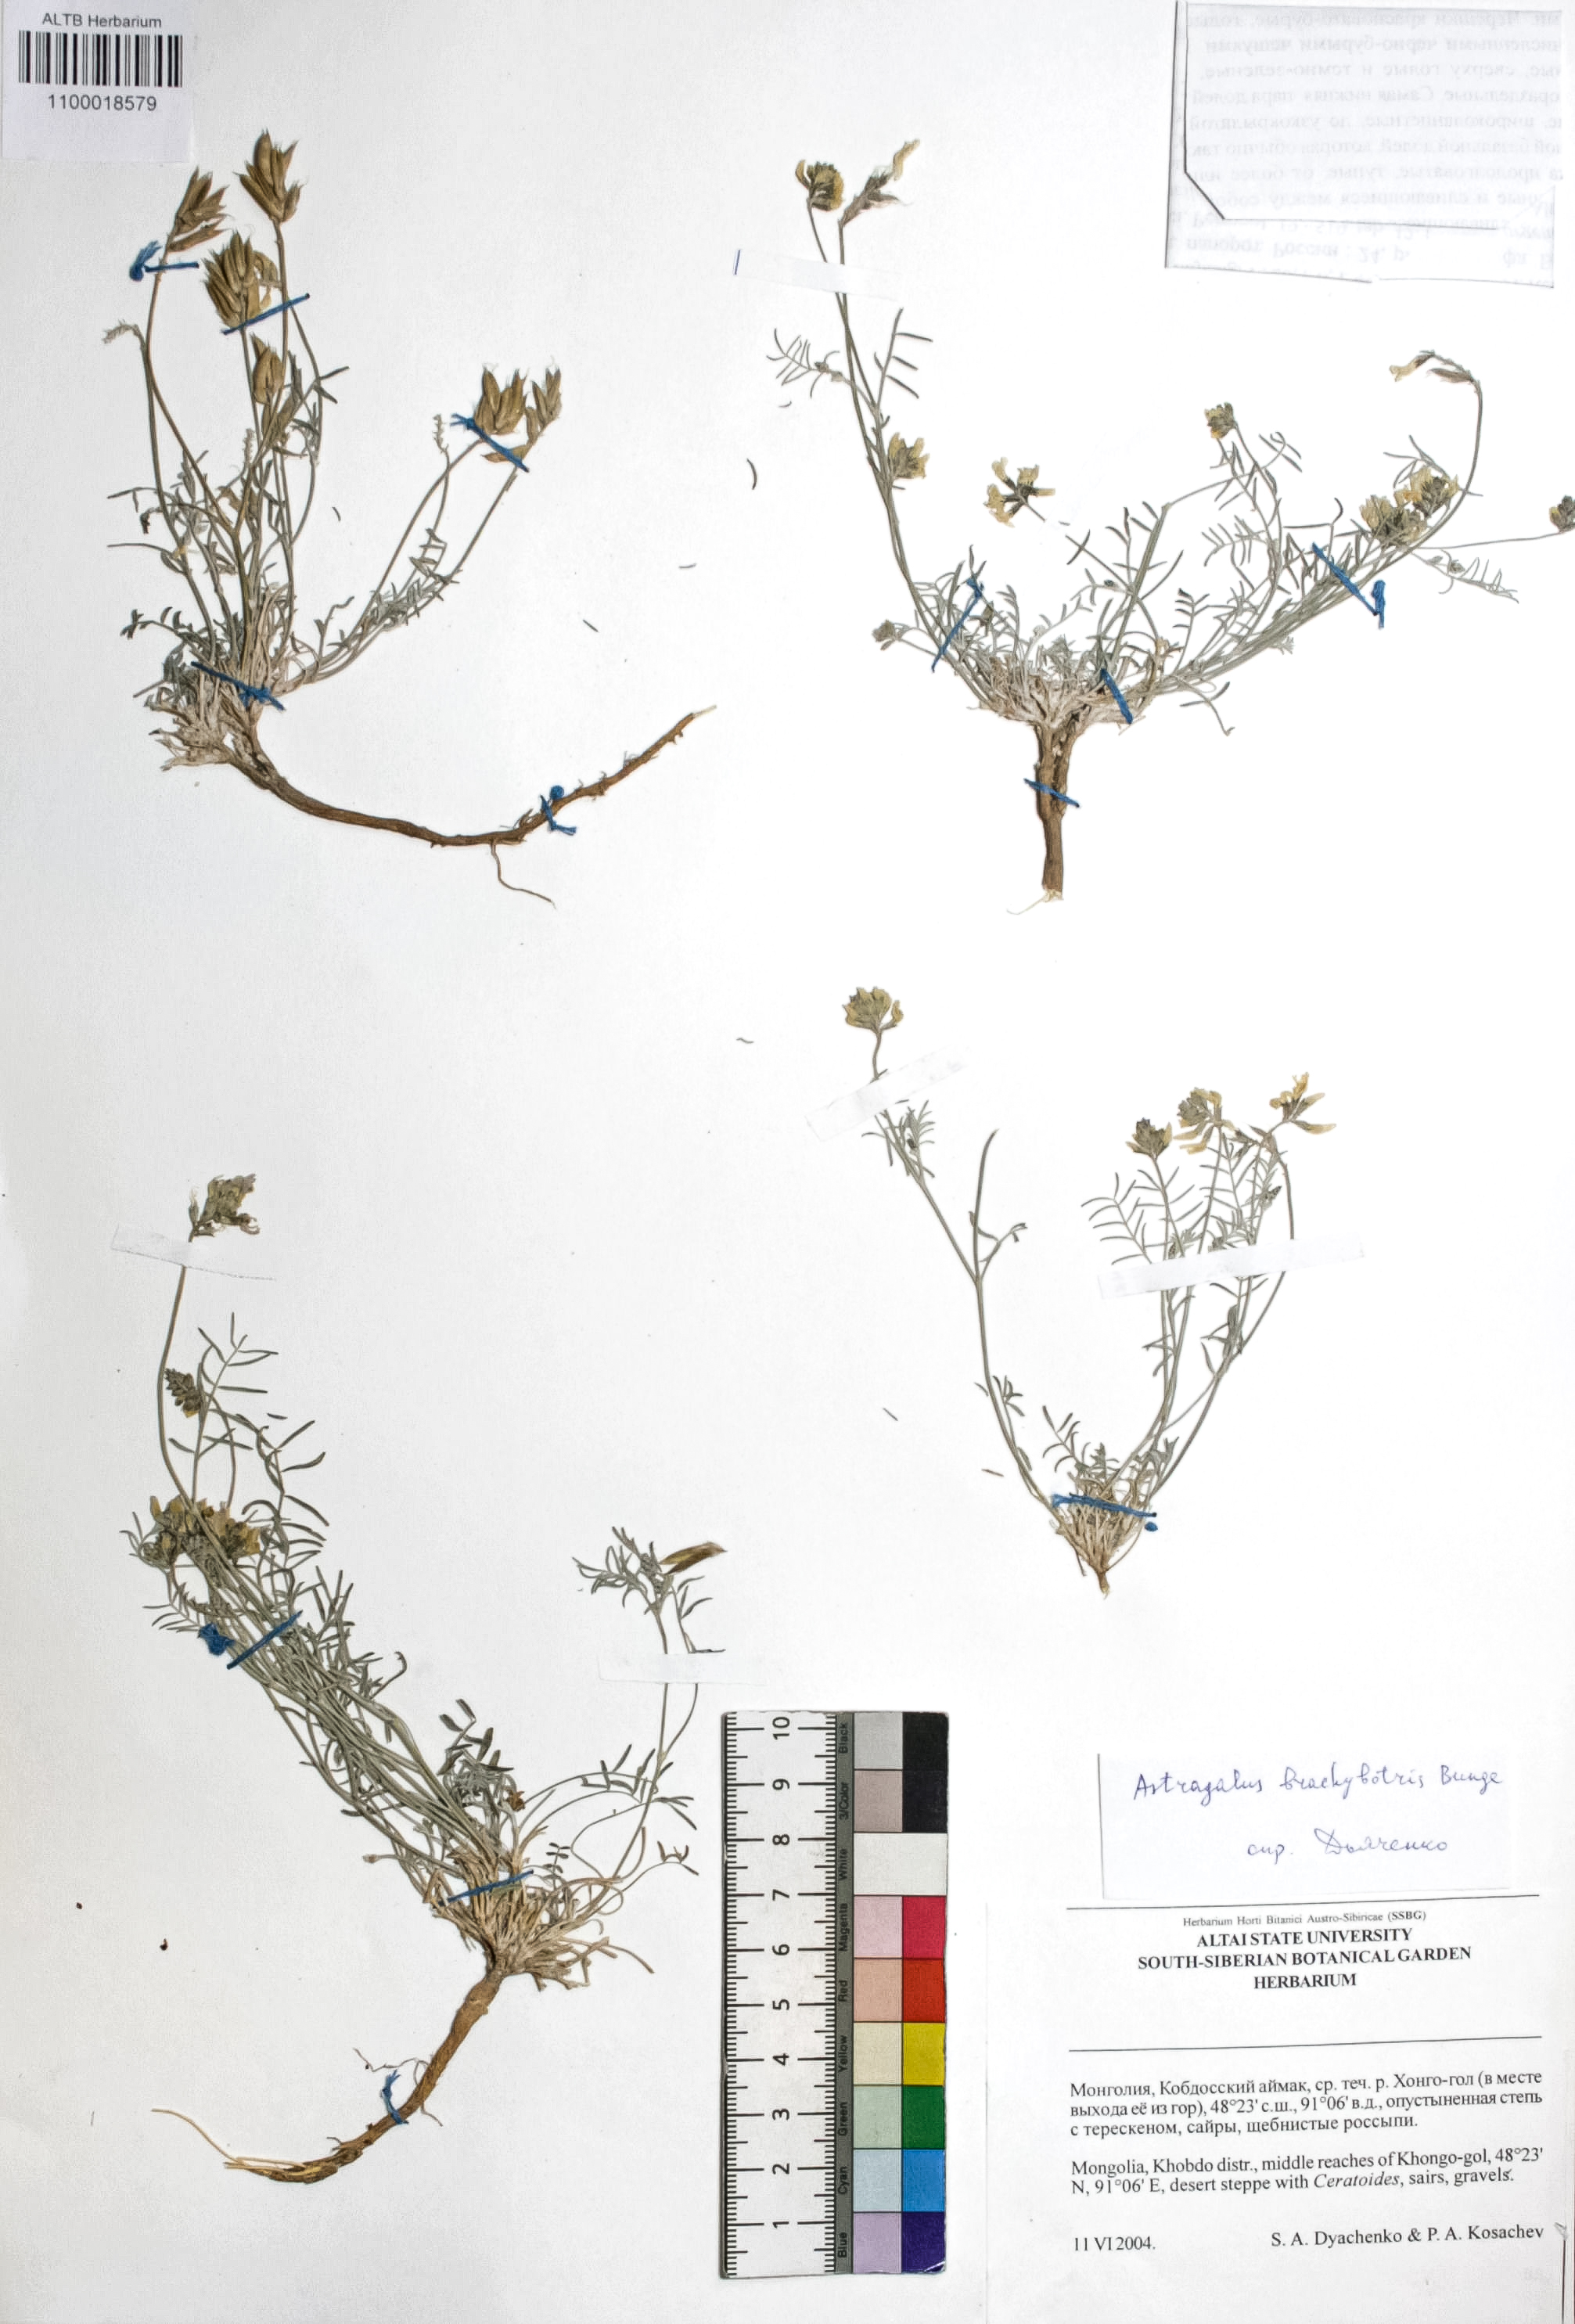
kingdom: Plantae
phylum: Tracheophyta
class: Magnoliopsida
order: Fabales
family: Fabaceae
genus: Astragalus
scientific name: Astragalus brachybotrys
